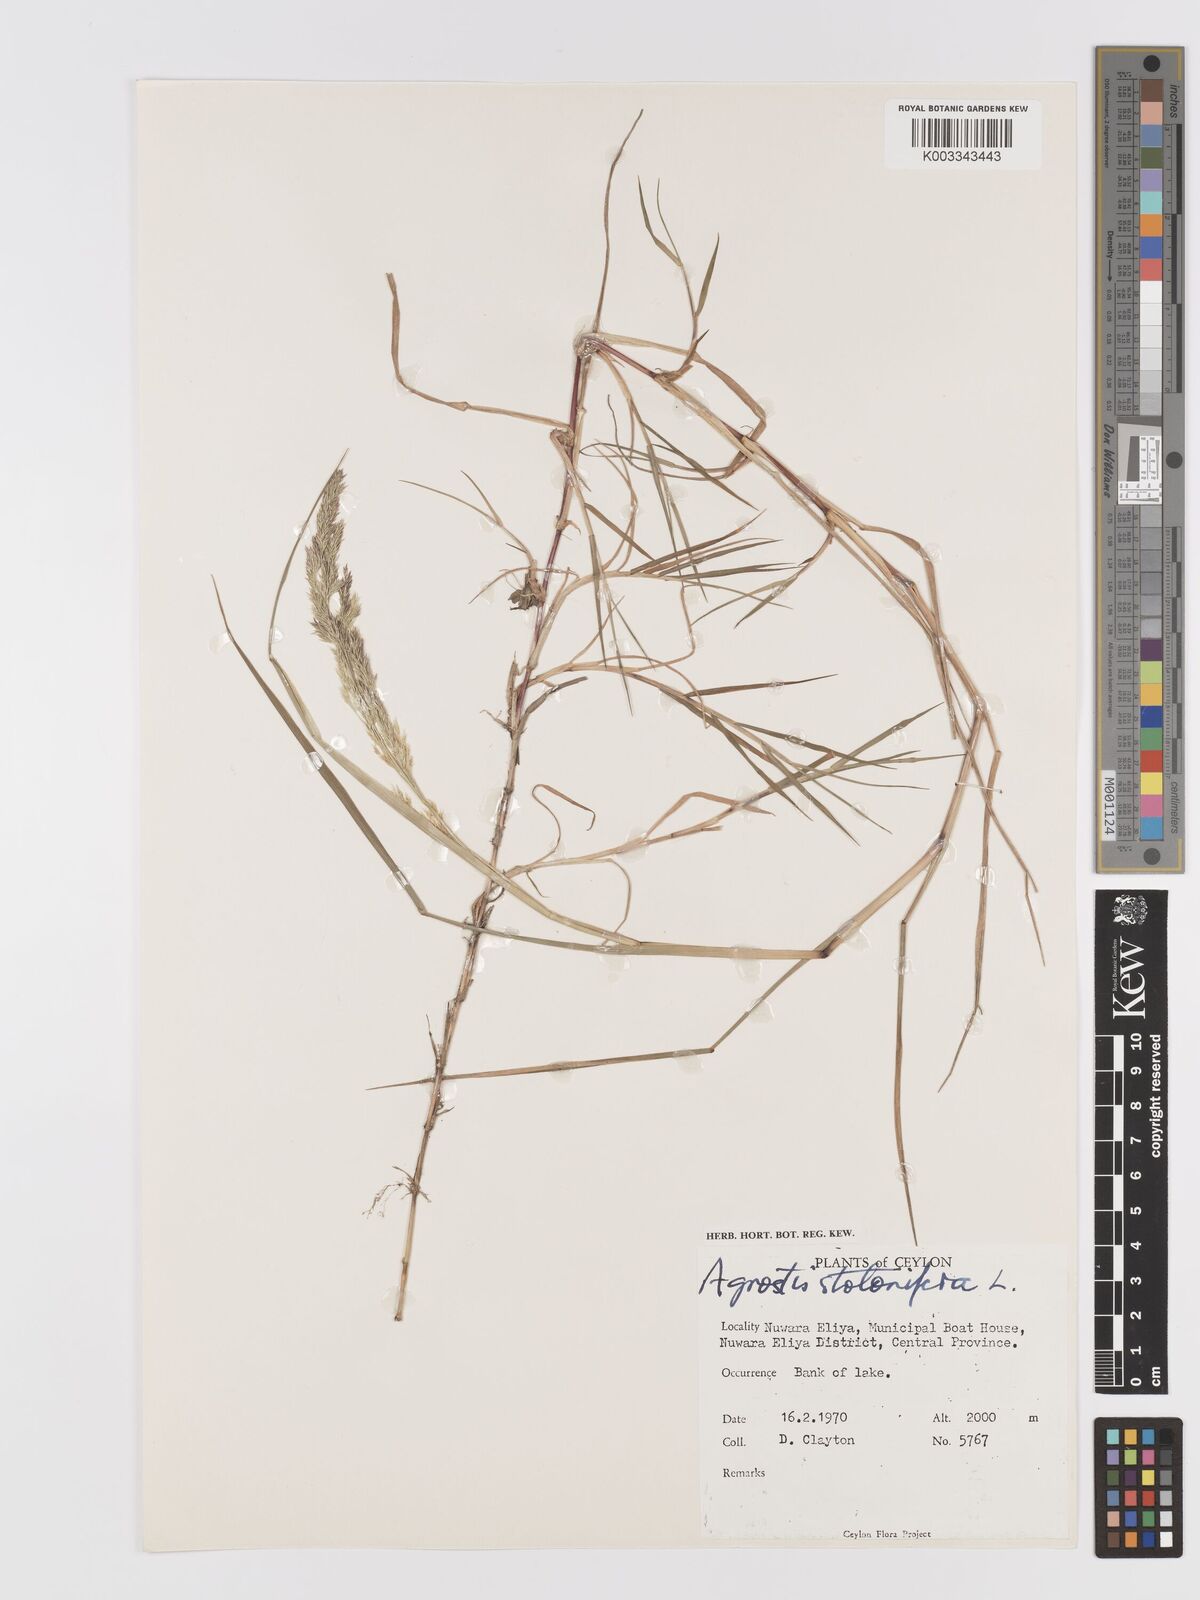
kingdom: Plantae
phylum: Tracheophyta
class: Liliopsida
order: Poales
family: Poaceae
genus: Agrostis
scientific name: Agrostis stolonifera
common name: Creeping bentgrass
